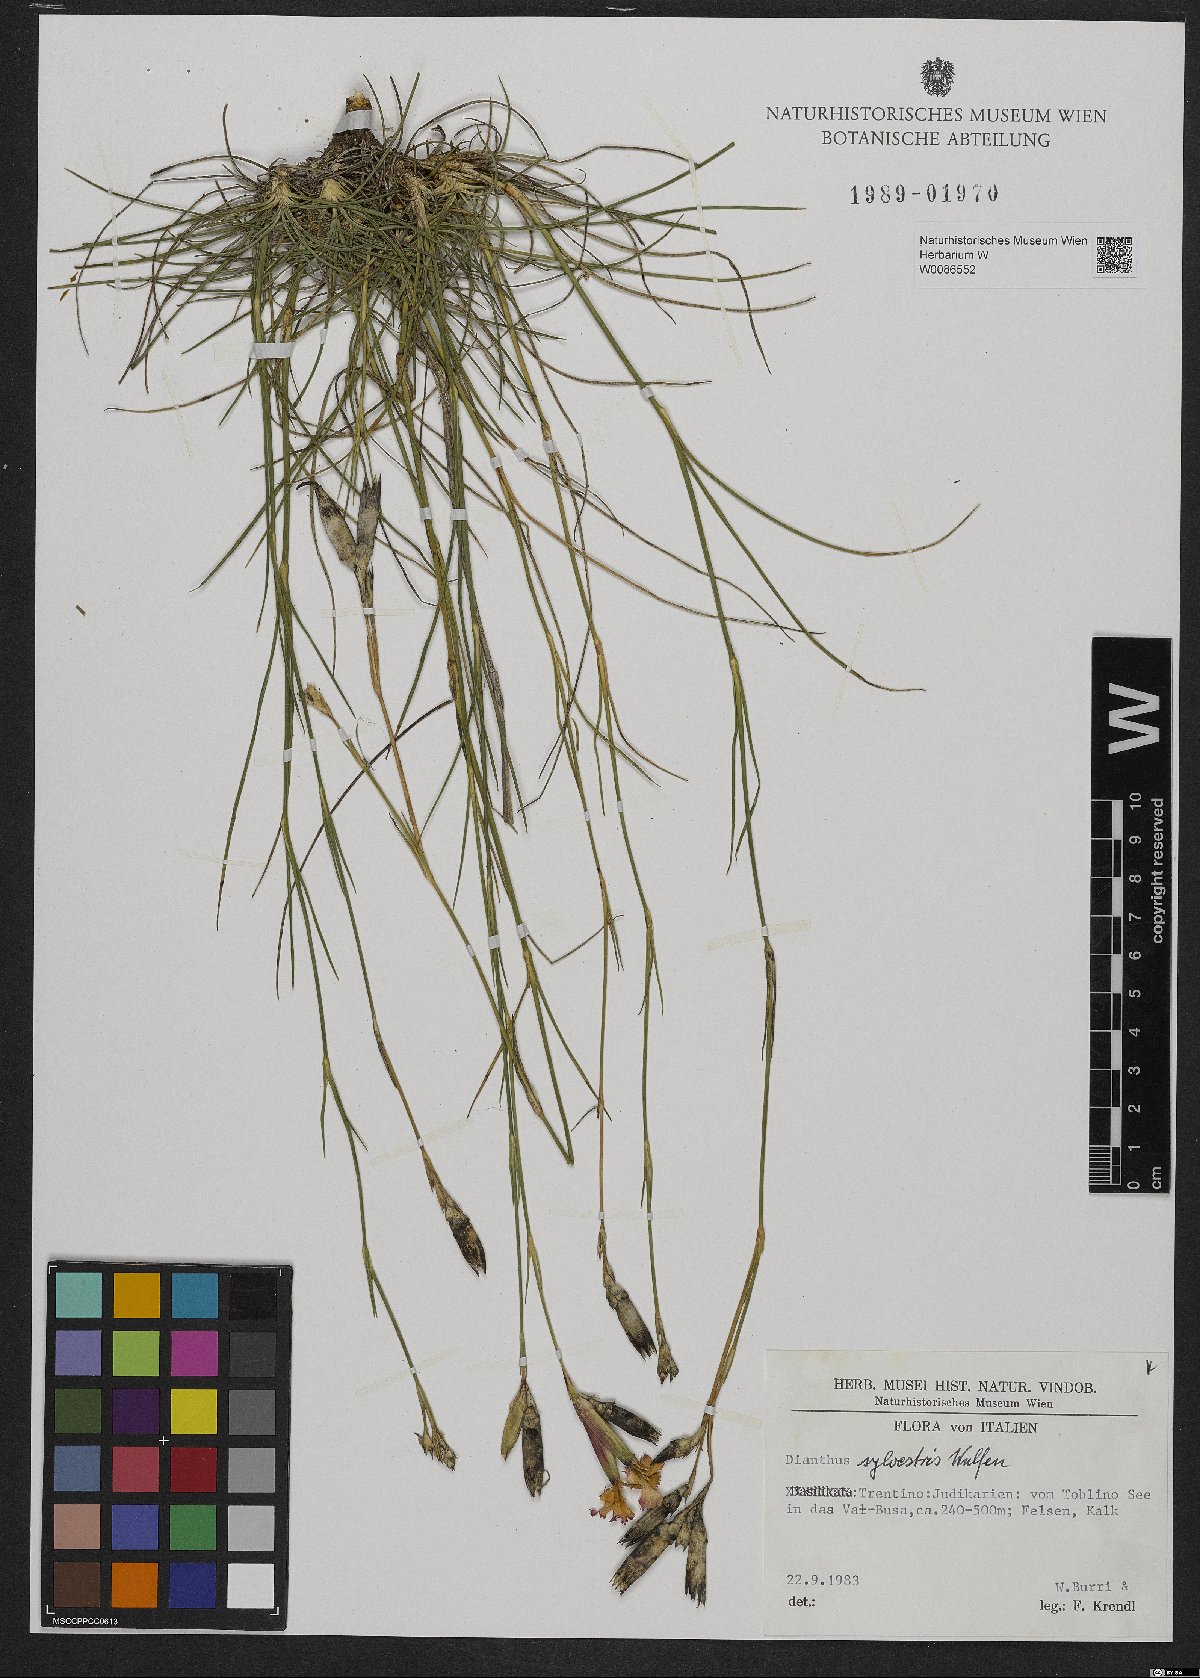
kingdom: Plantae
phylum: Tracheophyta
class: Magnoliopsida
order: Caryophyllales
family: Caryophyllaceae
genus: Dianthus
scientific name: Dianthus sylvestris
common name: Wood pink
